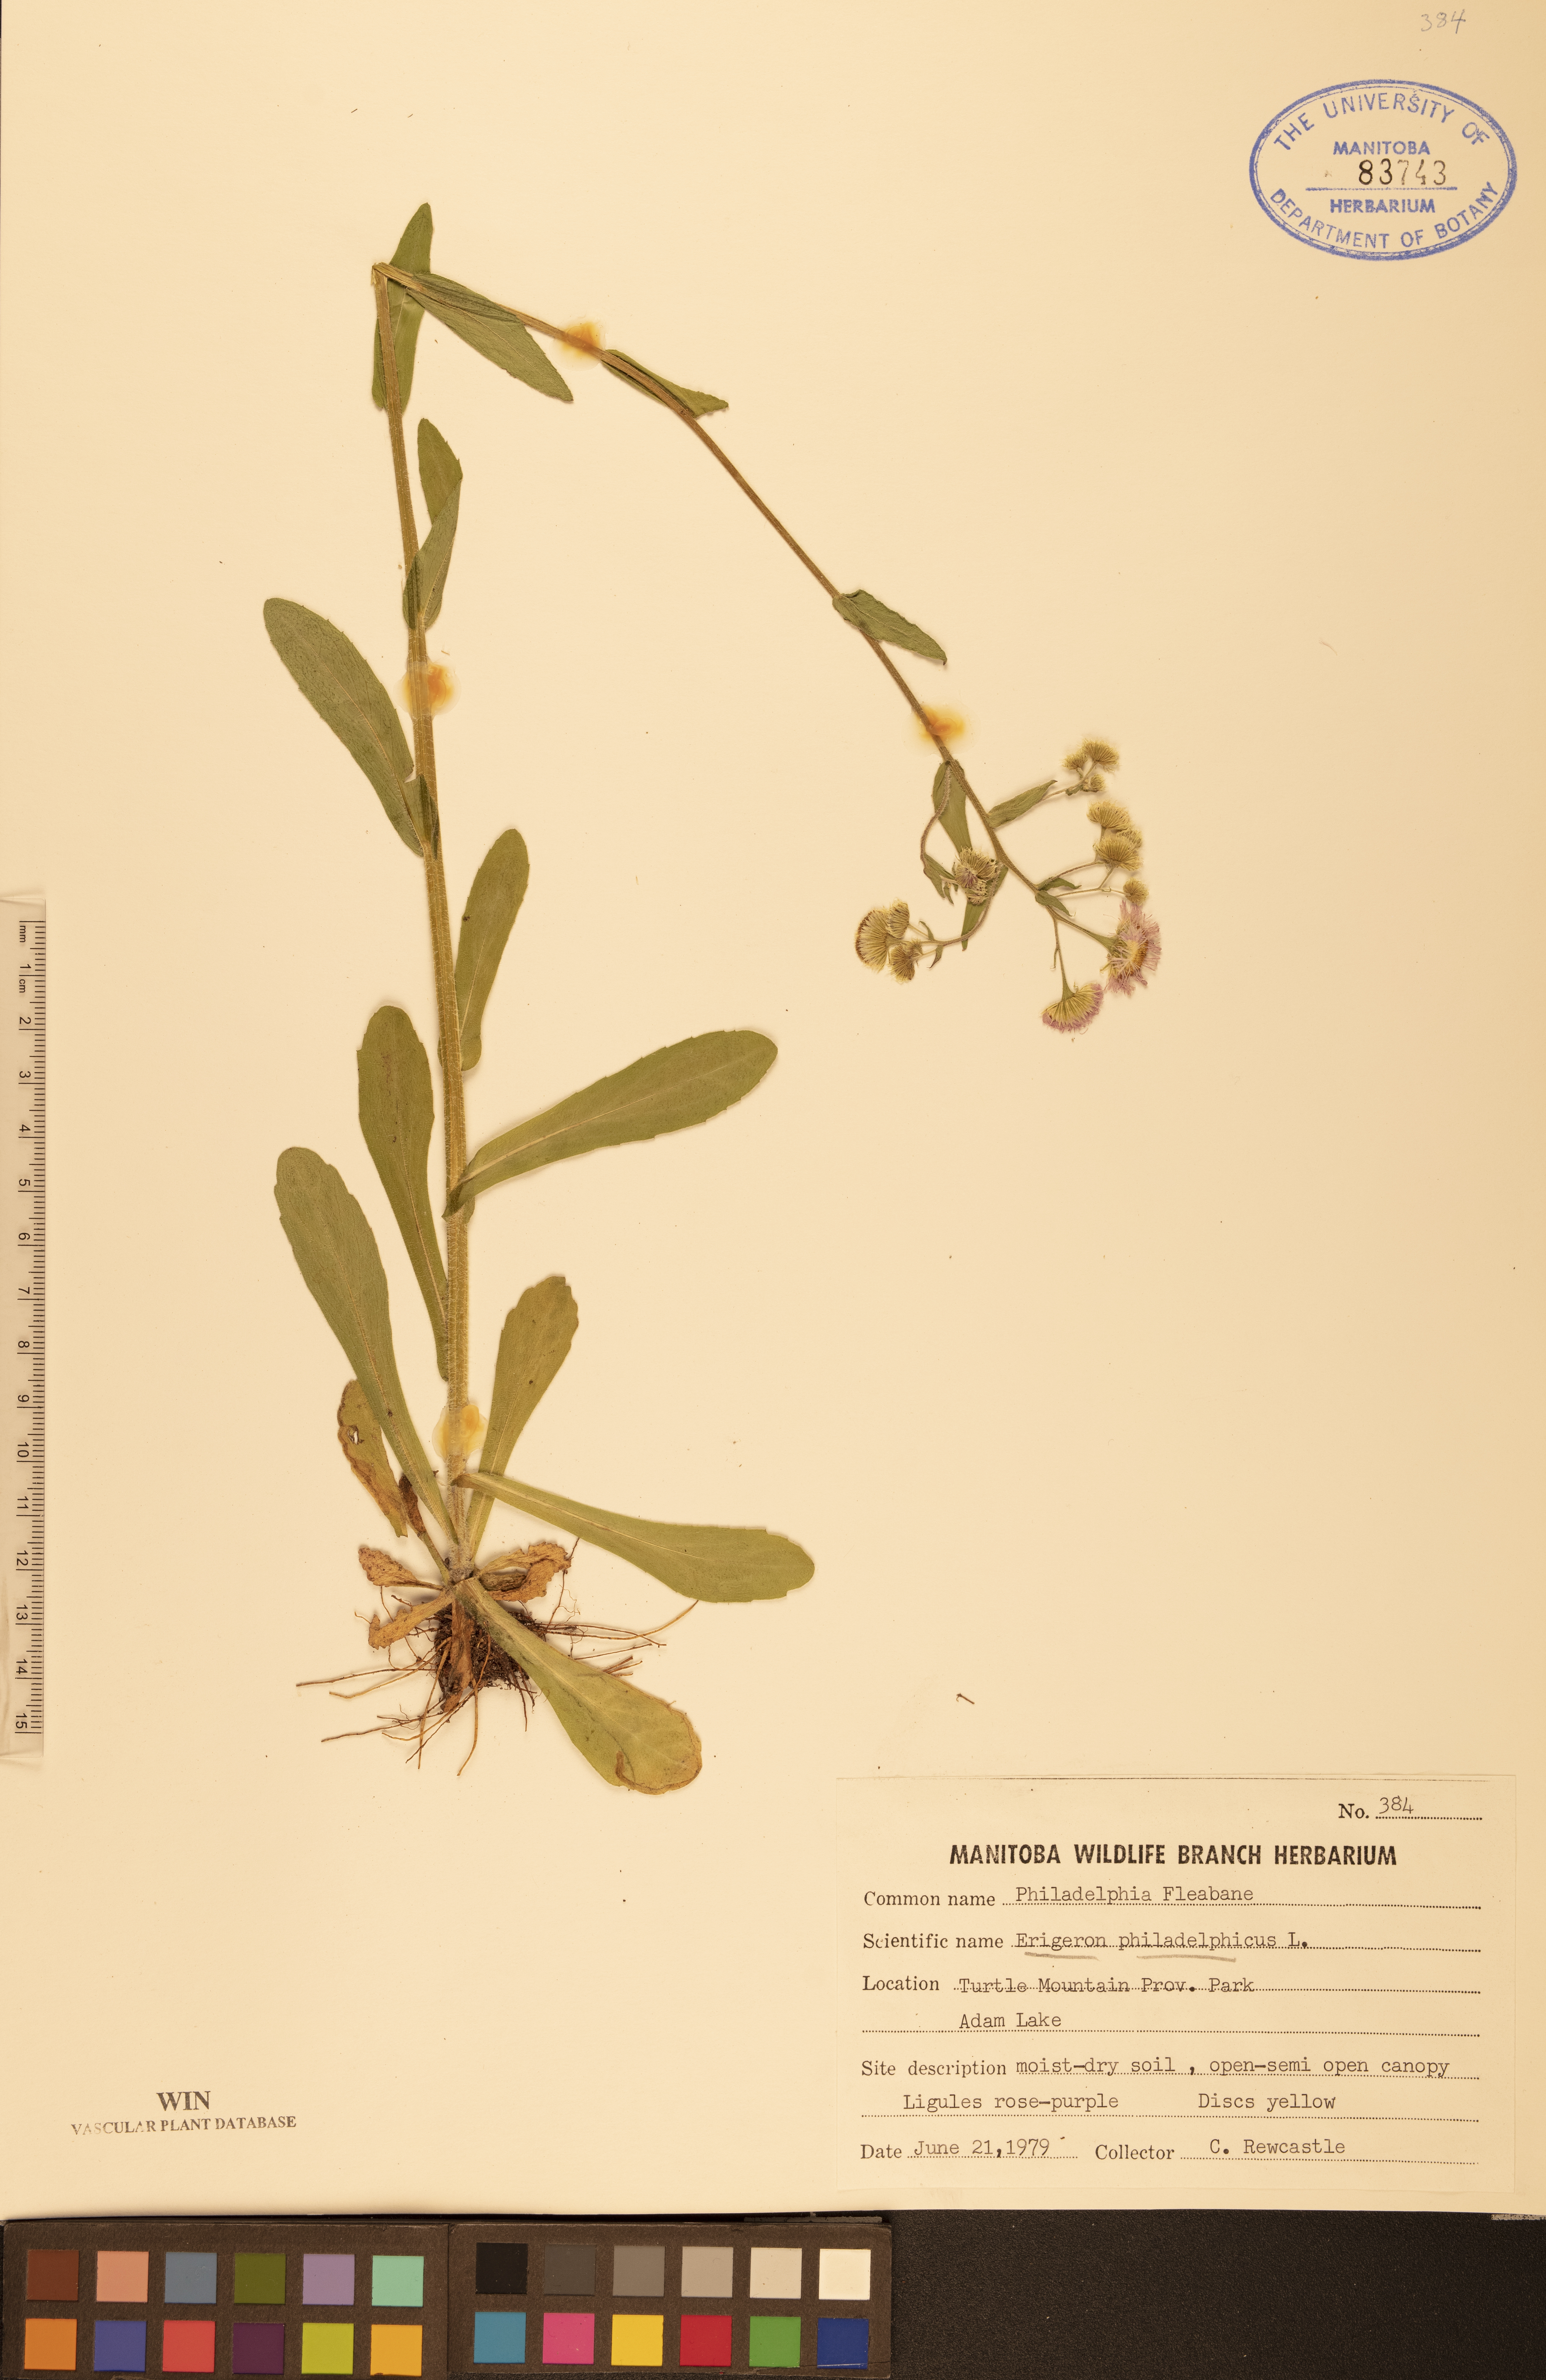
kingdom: Plantae
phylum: Tracheophyta
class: Magnoliopsida
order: Asterales
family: Asteraceae
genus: Erigeron
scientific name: Erigeron philadelphicus
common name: Robin's-plantain
